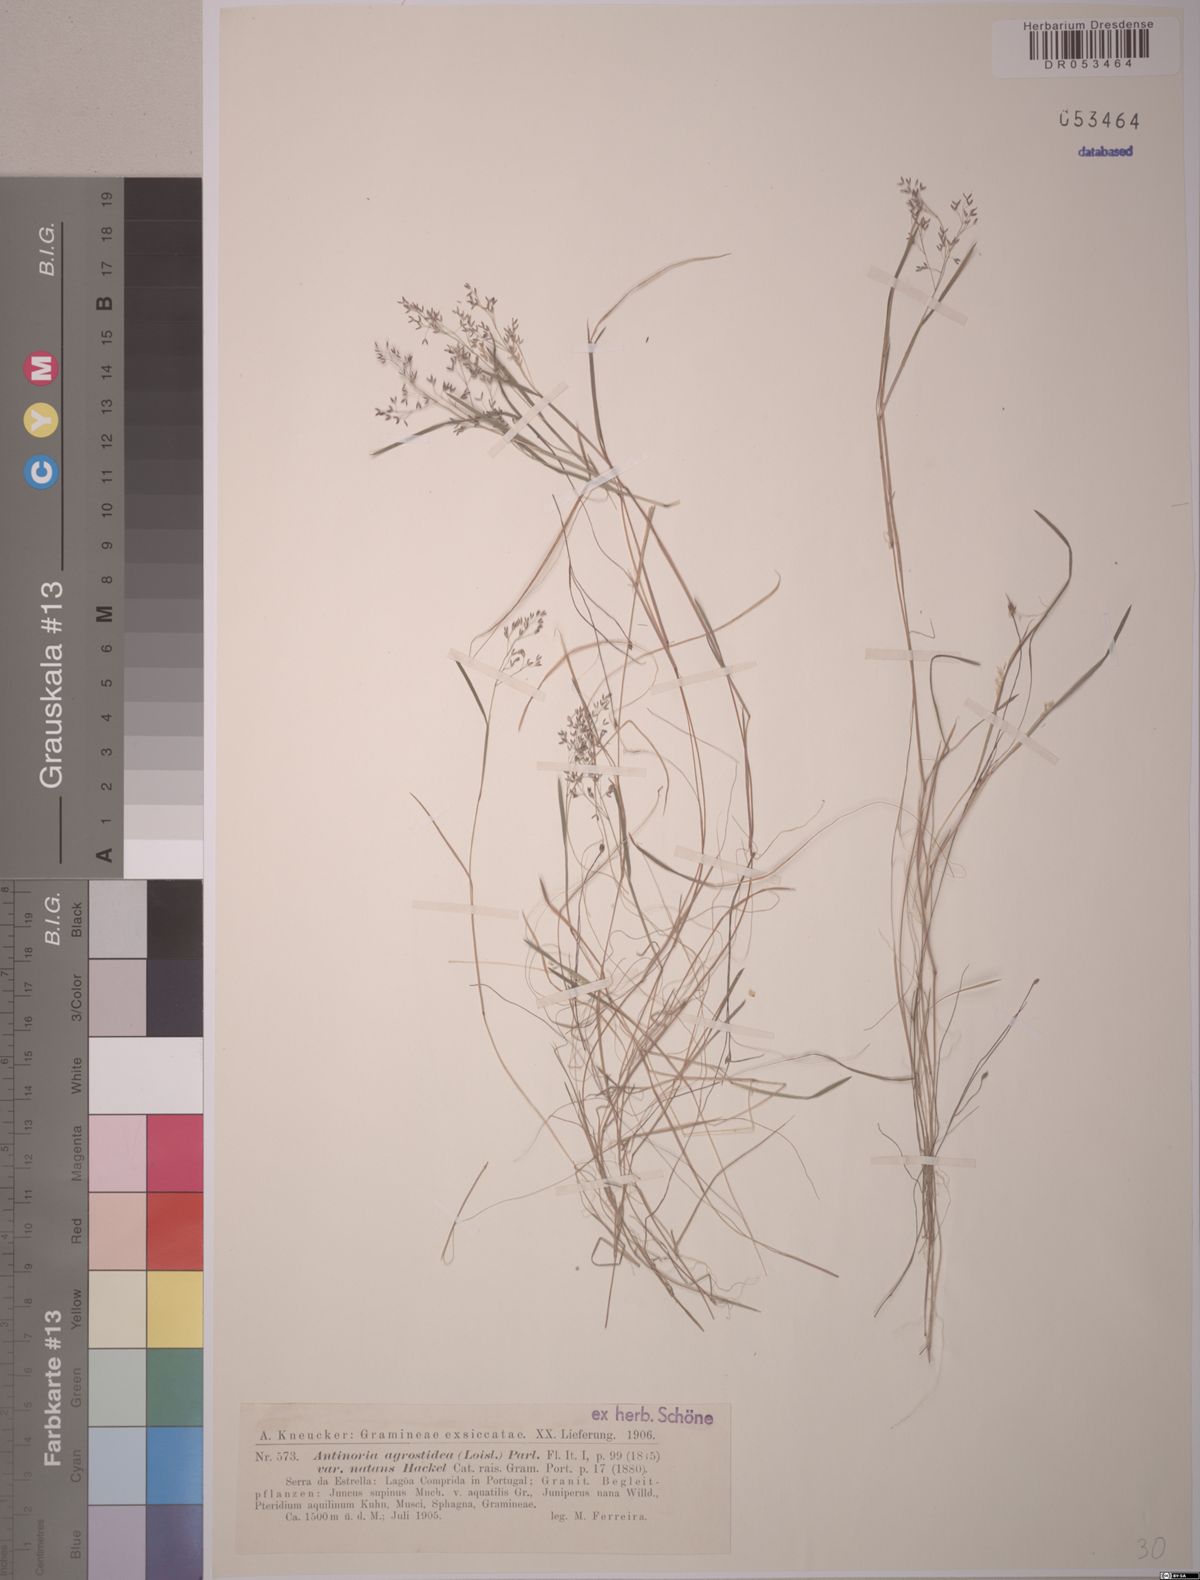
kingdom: Plantae
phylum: Tracheophyta
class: Liliopsida
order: Poales
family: Poaceae
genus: Antinoria
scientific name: Antinoria agrostidea
